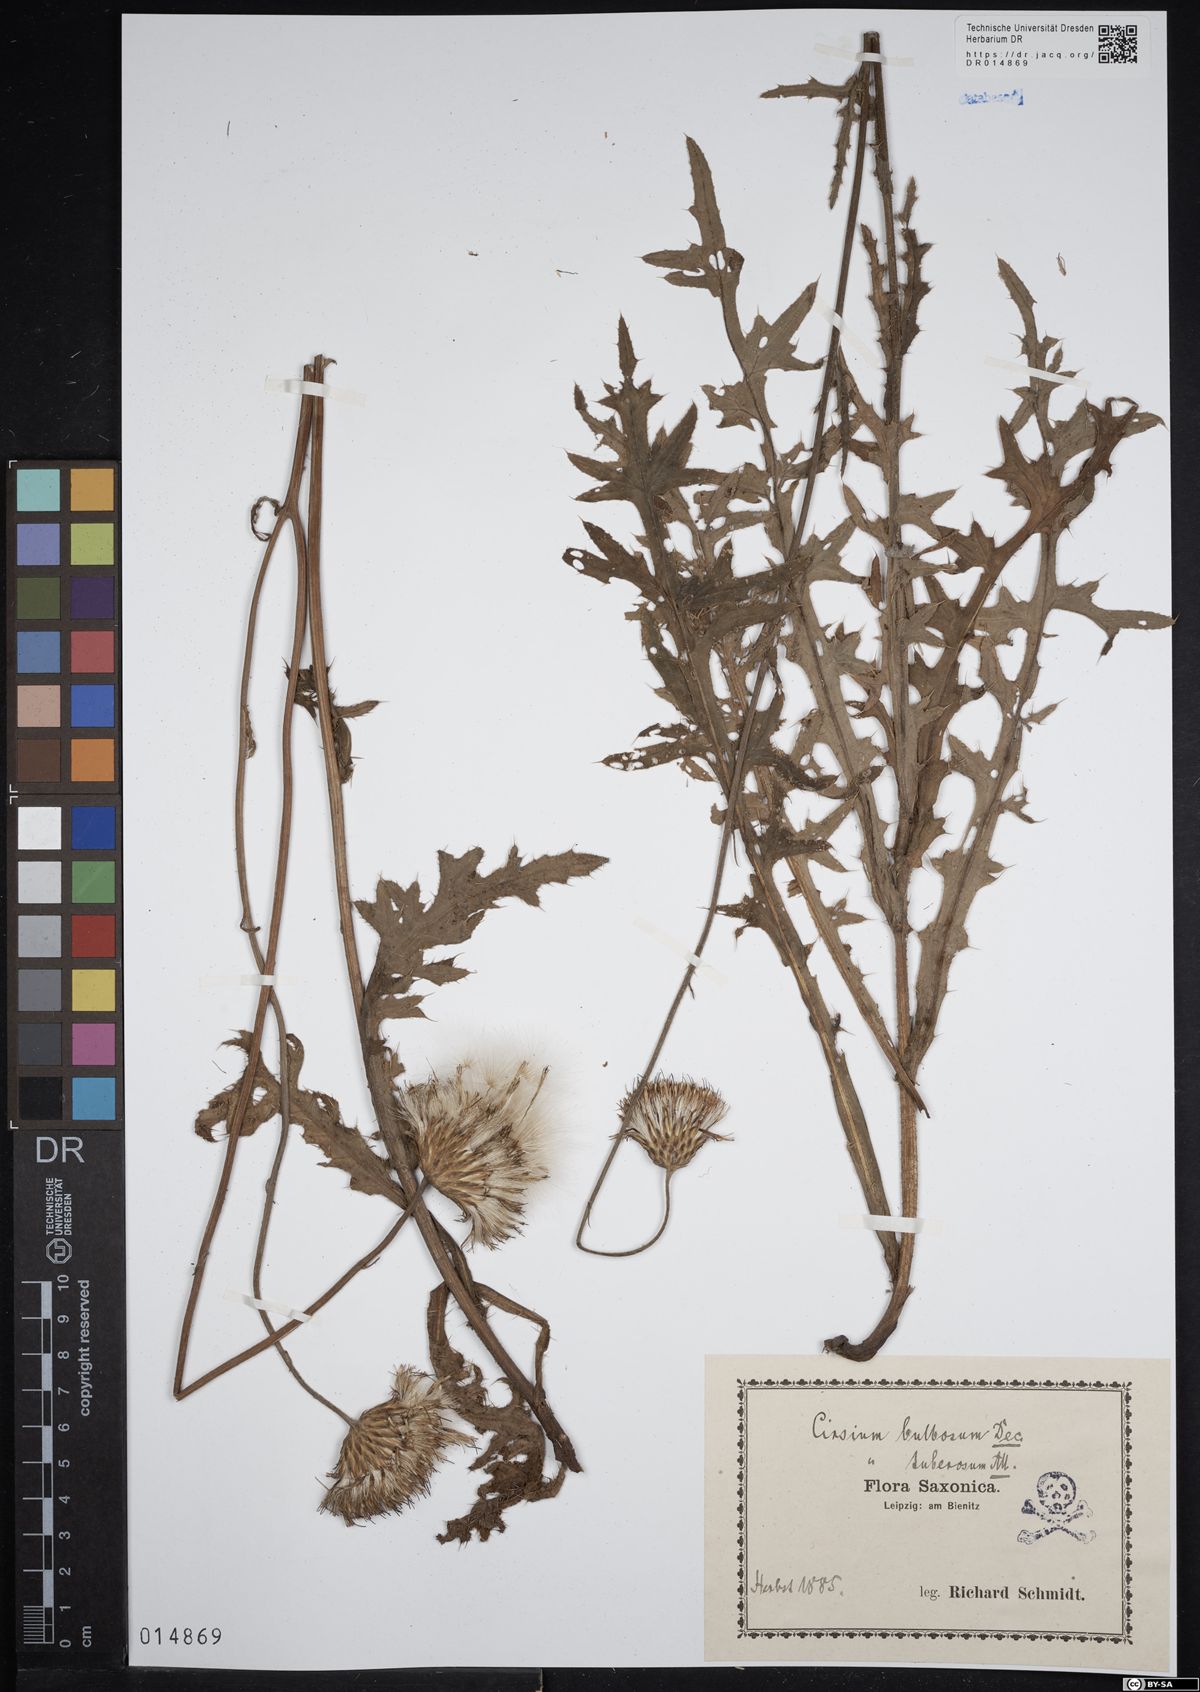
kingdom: Plantae
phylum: Tracheophyta
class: Magnoliopsida
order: Asterales
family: Asteraceae
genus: Cirsium
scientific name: Cirsium tuberosum
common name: Tuberous thistle
